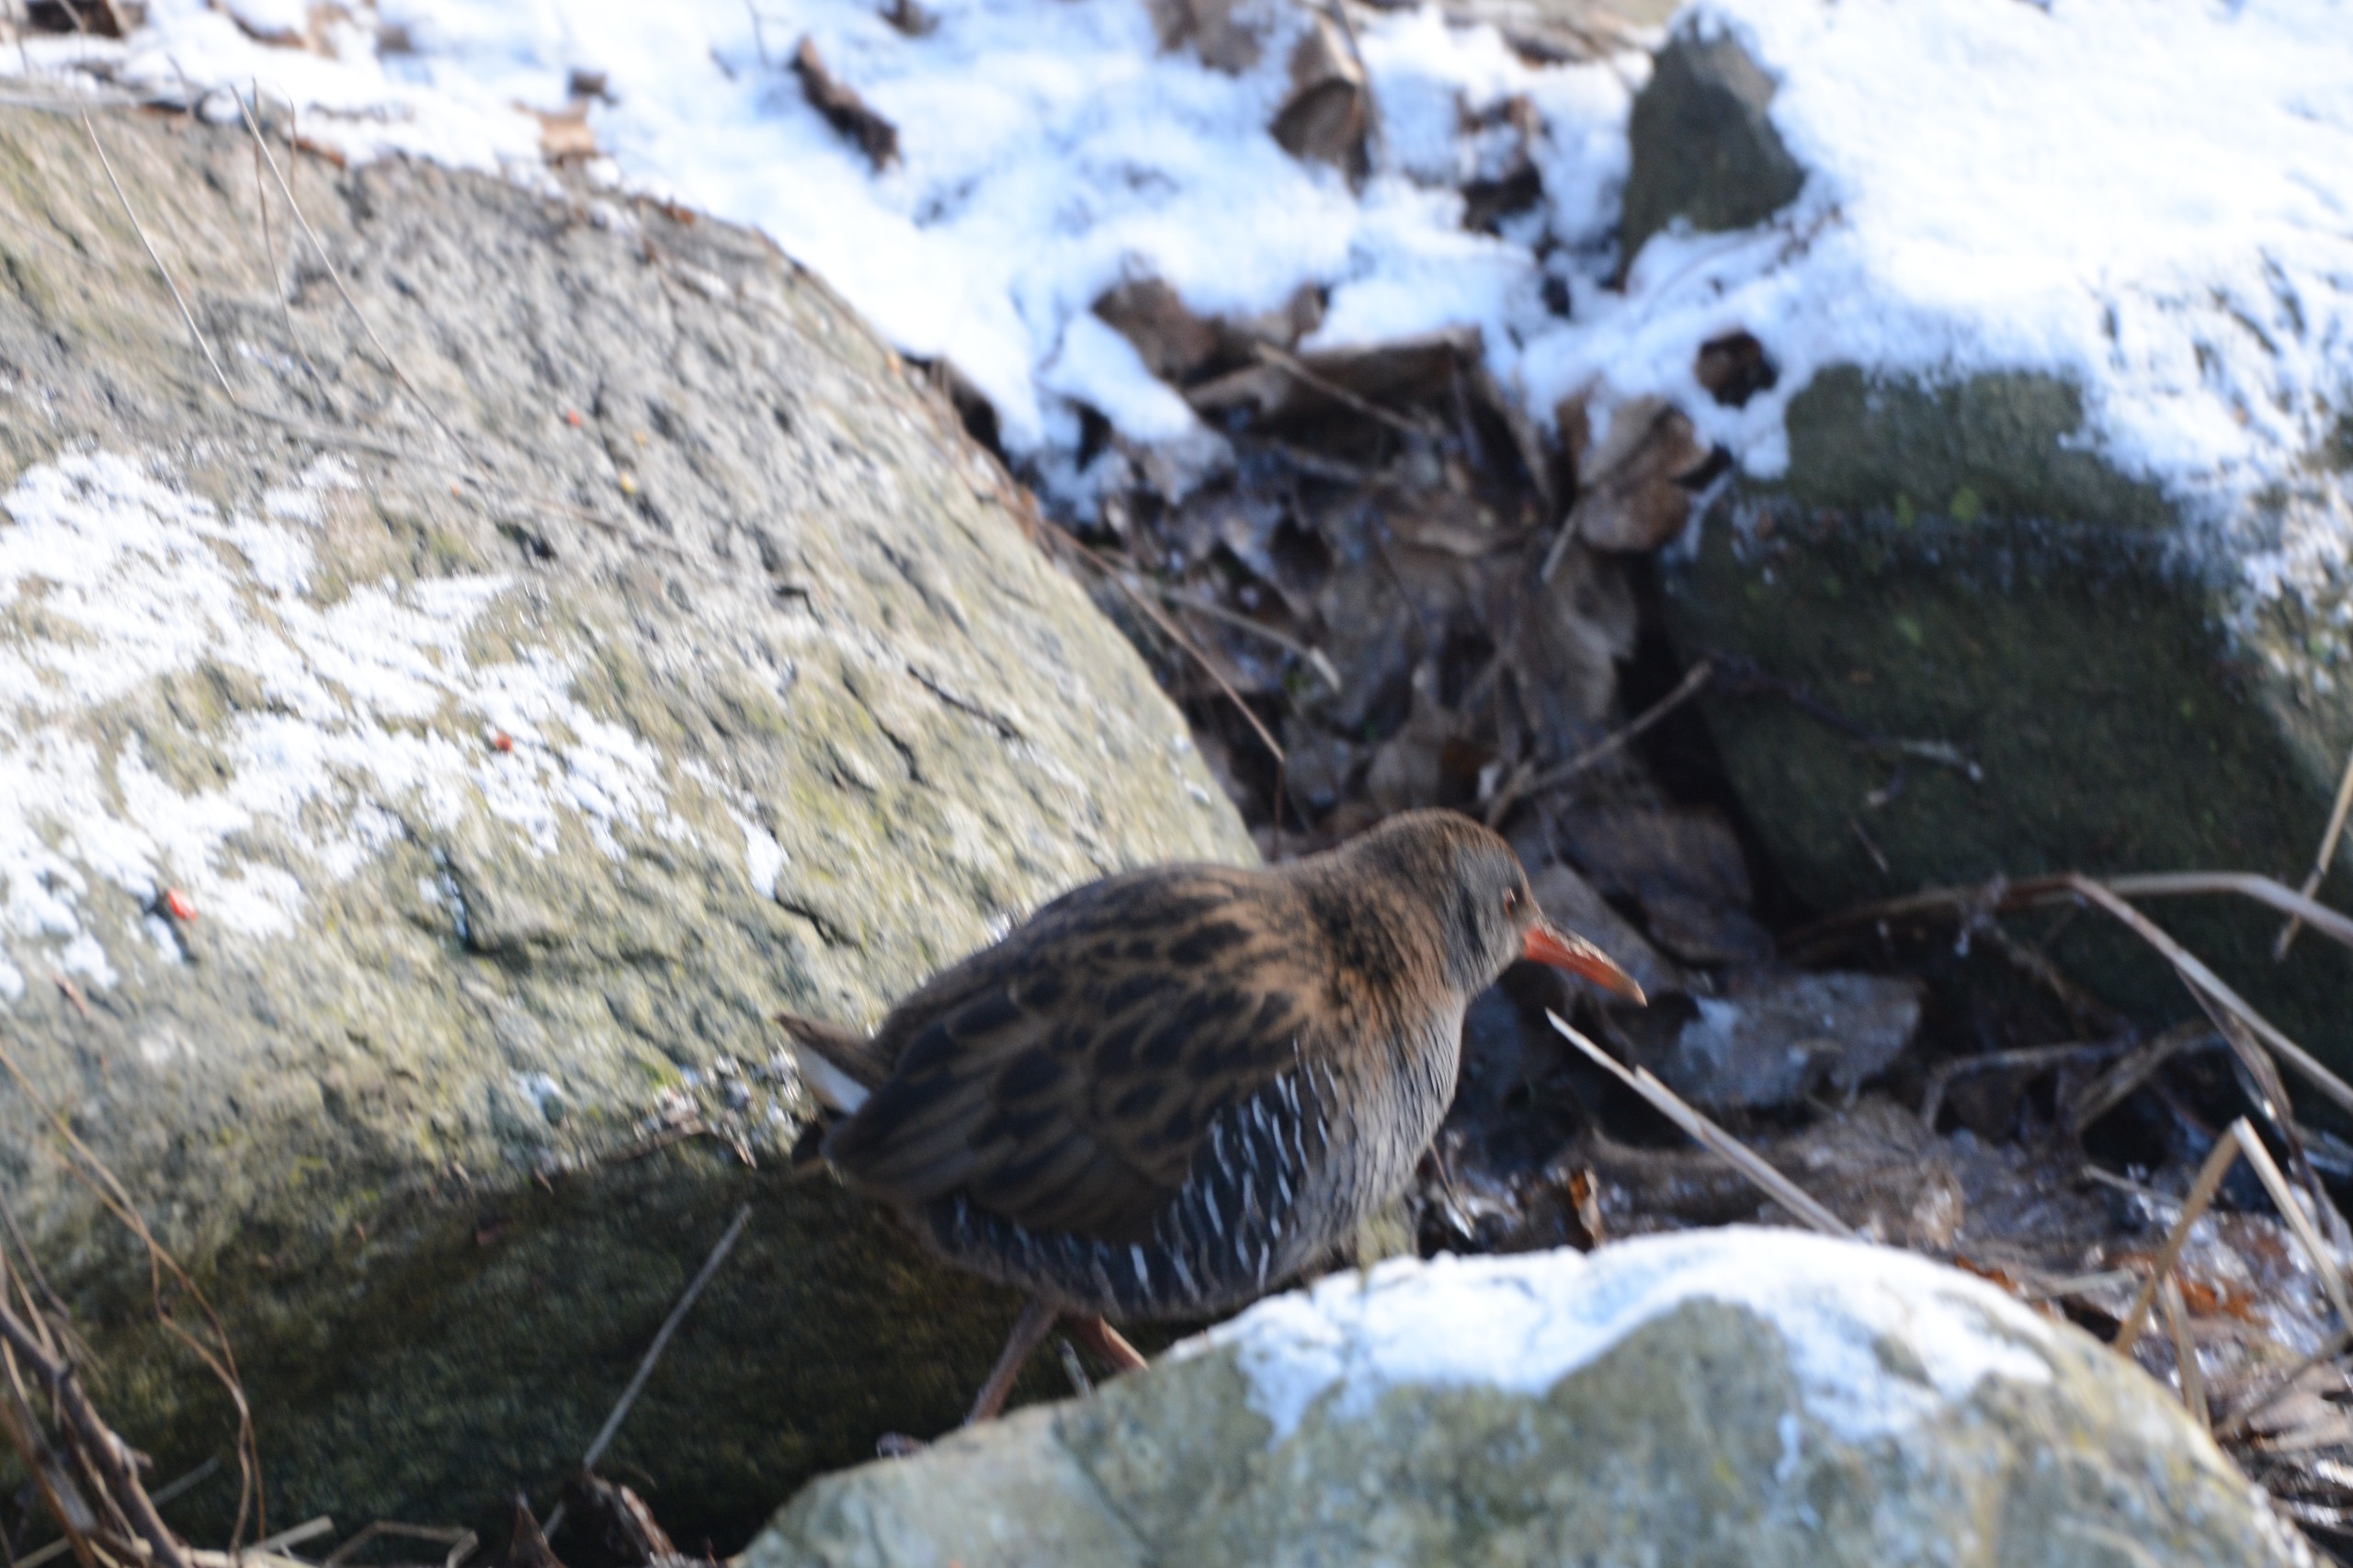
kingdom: Animalia
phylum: Chordata
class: Aves
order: Gruiformes
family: Rallidae
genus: Rallus
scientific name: Rallus aquaticus
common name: Vandrikse
